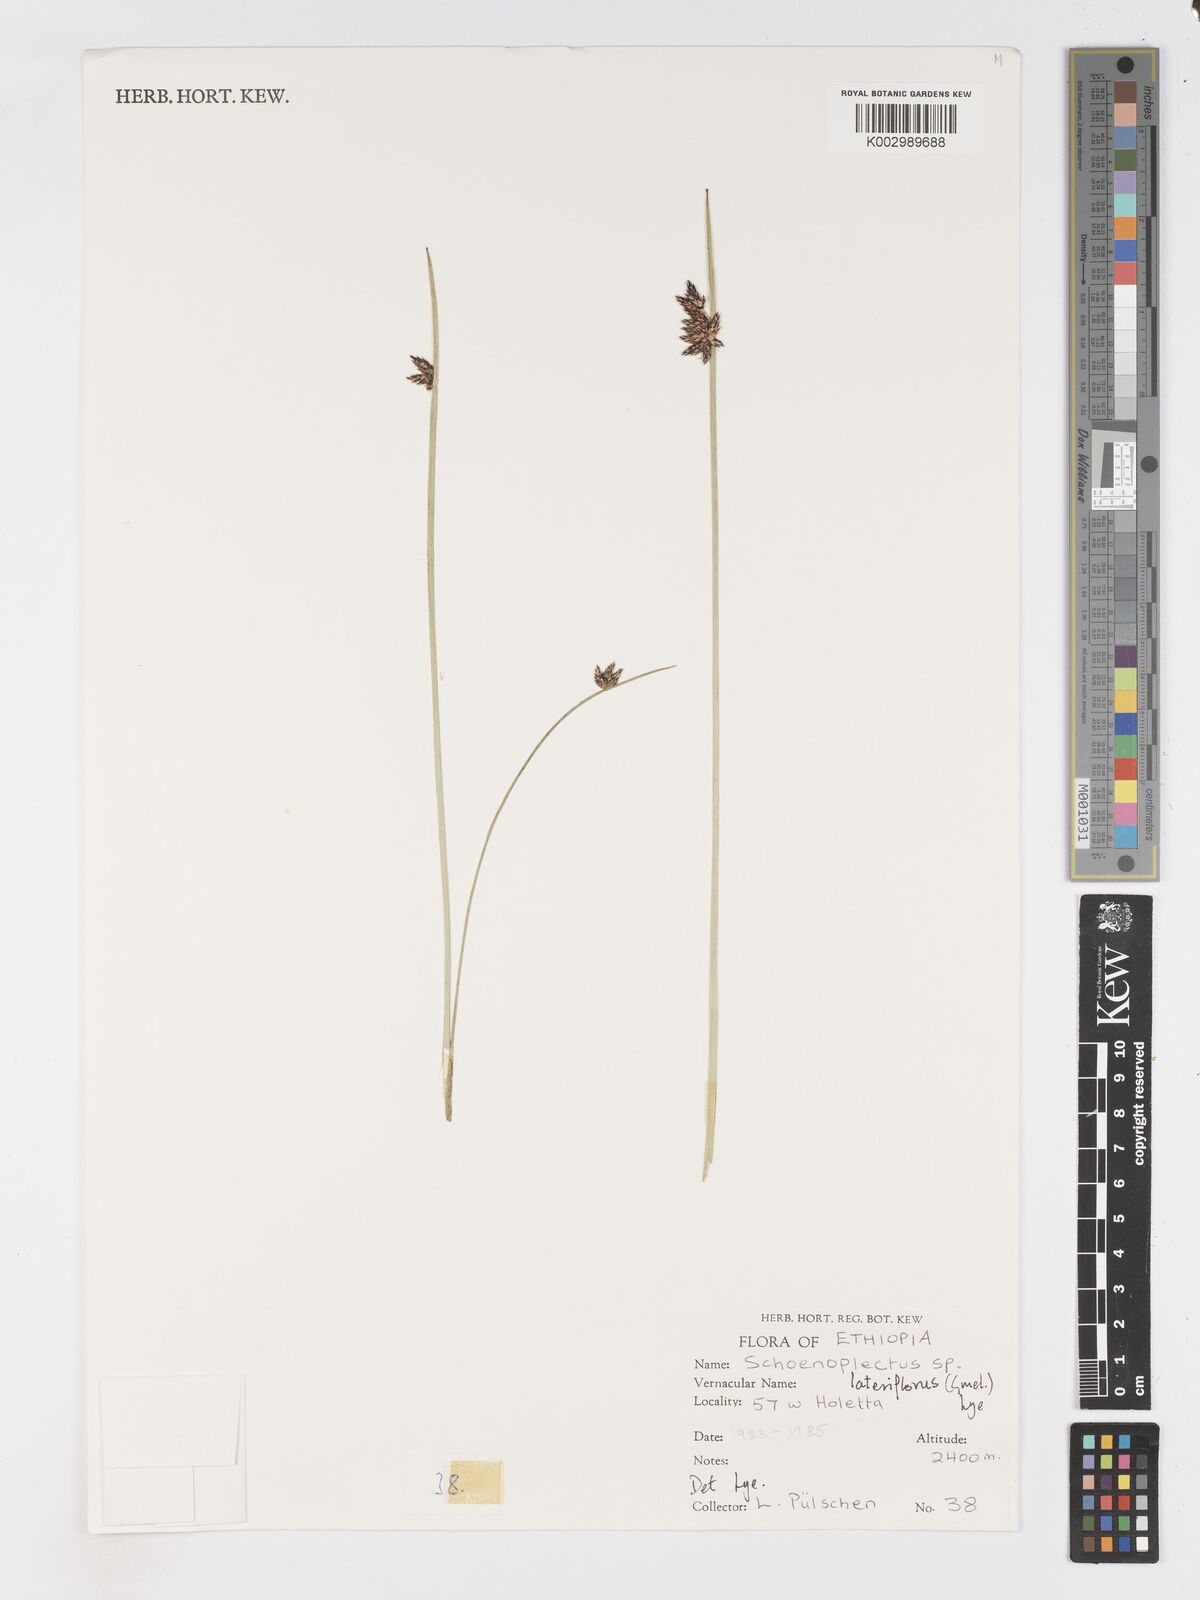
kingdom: Plantae
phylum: Tracheophyta
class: Liliopsida
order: Poales
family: Cyperaceae
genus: Schoenoplectus
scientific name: Schoenoplectus
